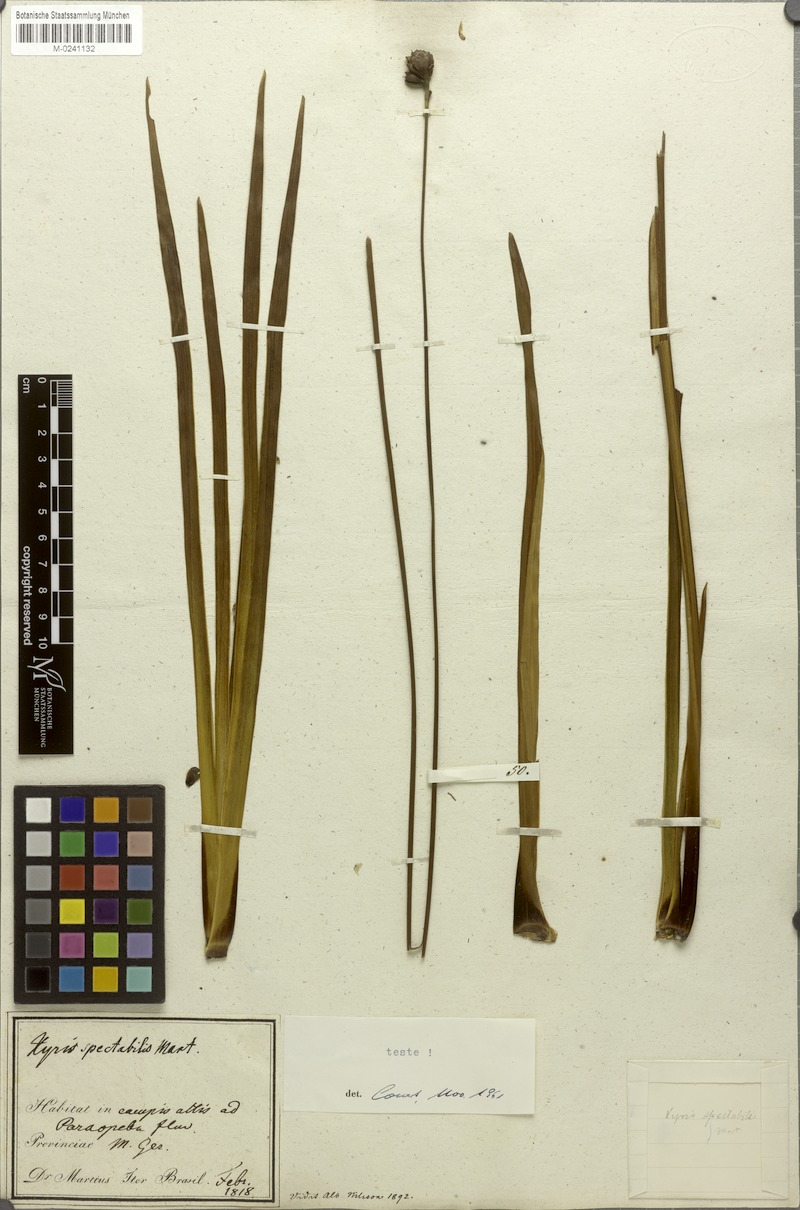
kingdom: Plantae
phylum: Tracheophyta
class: Liliopsida
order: Poales
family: Xyridaceae
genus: Xyris
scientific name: Xyris spectabilis
